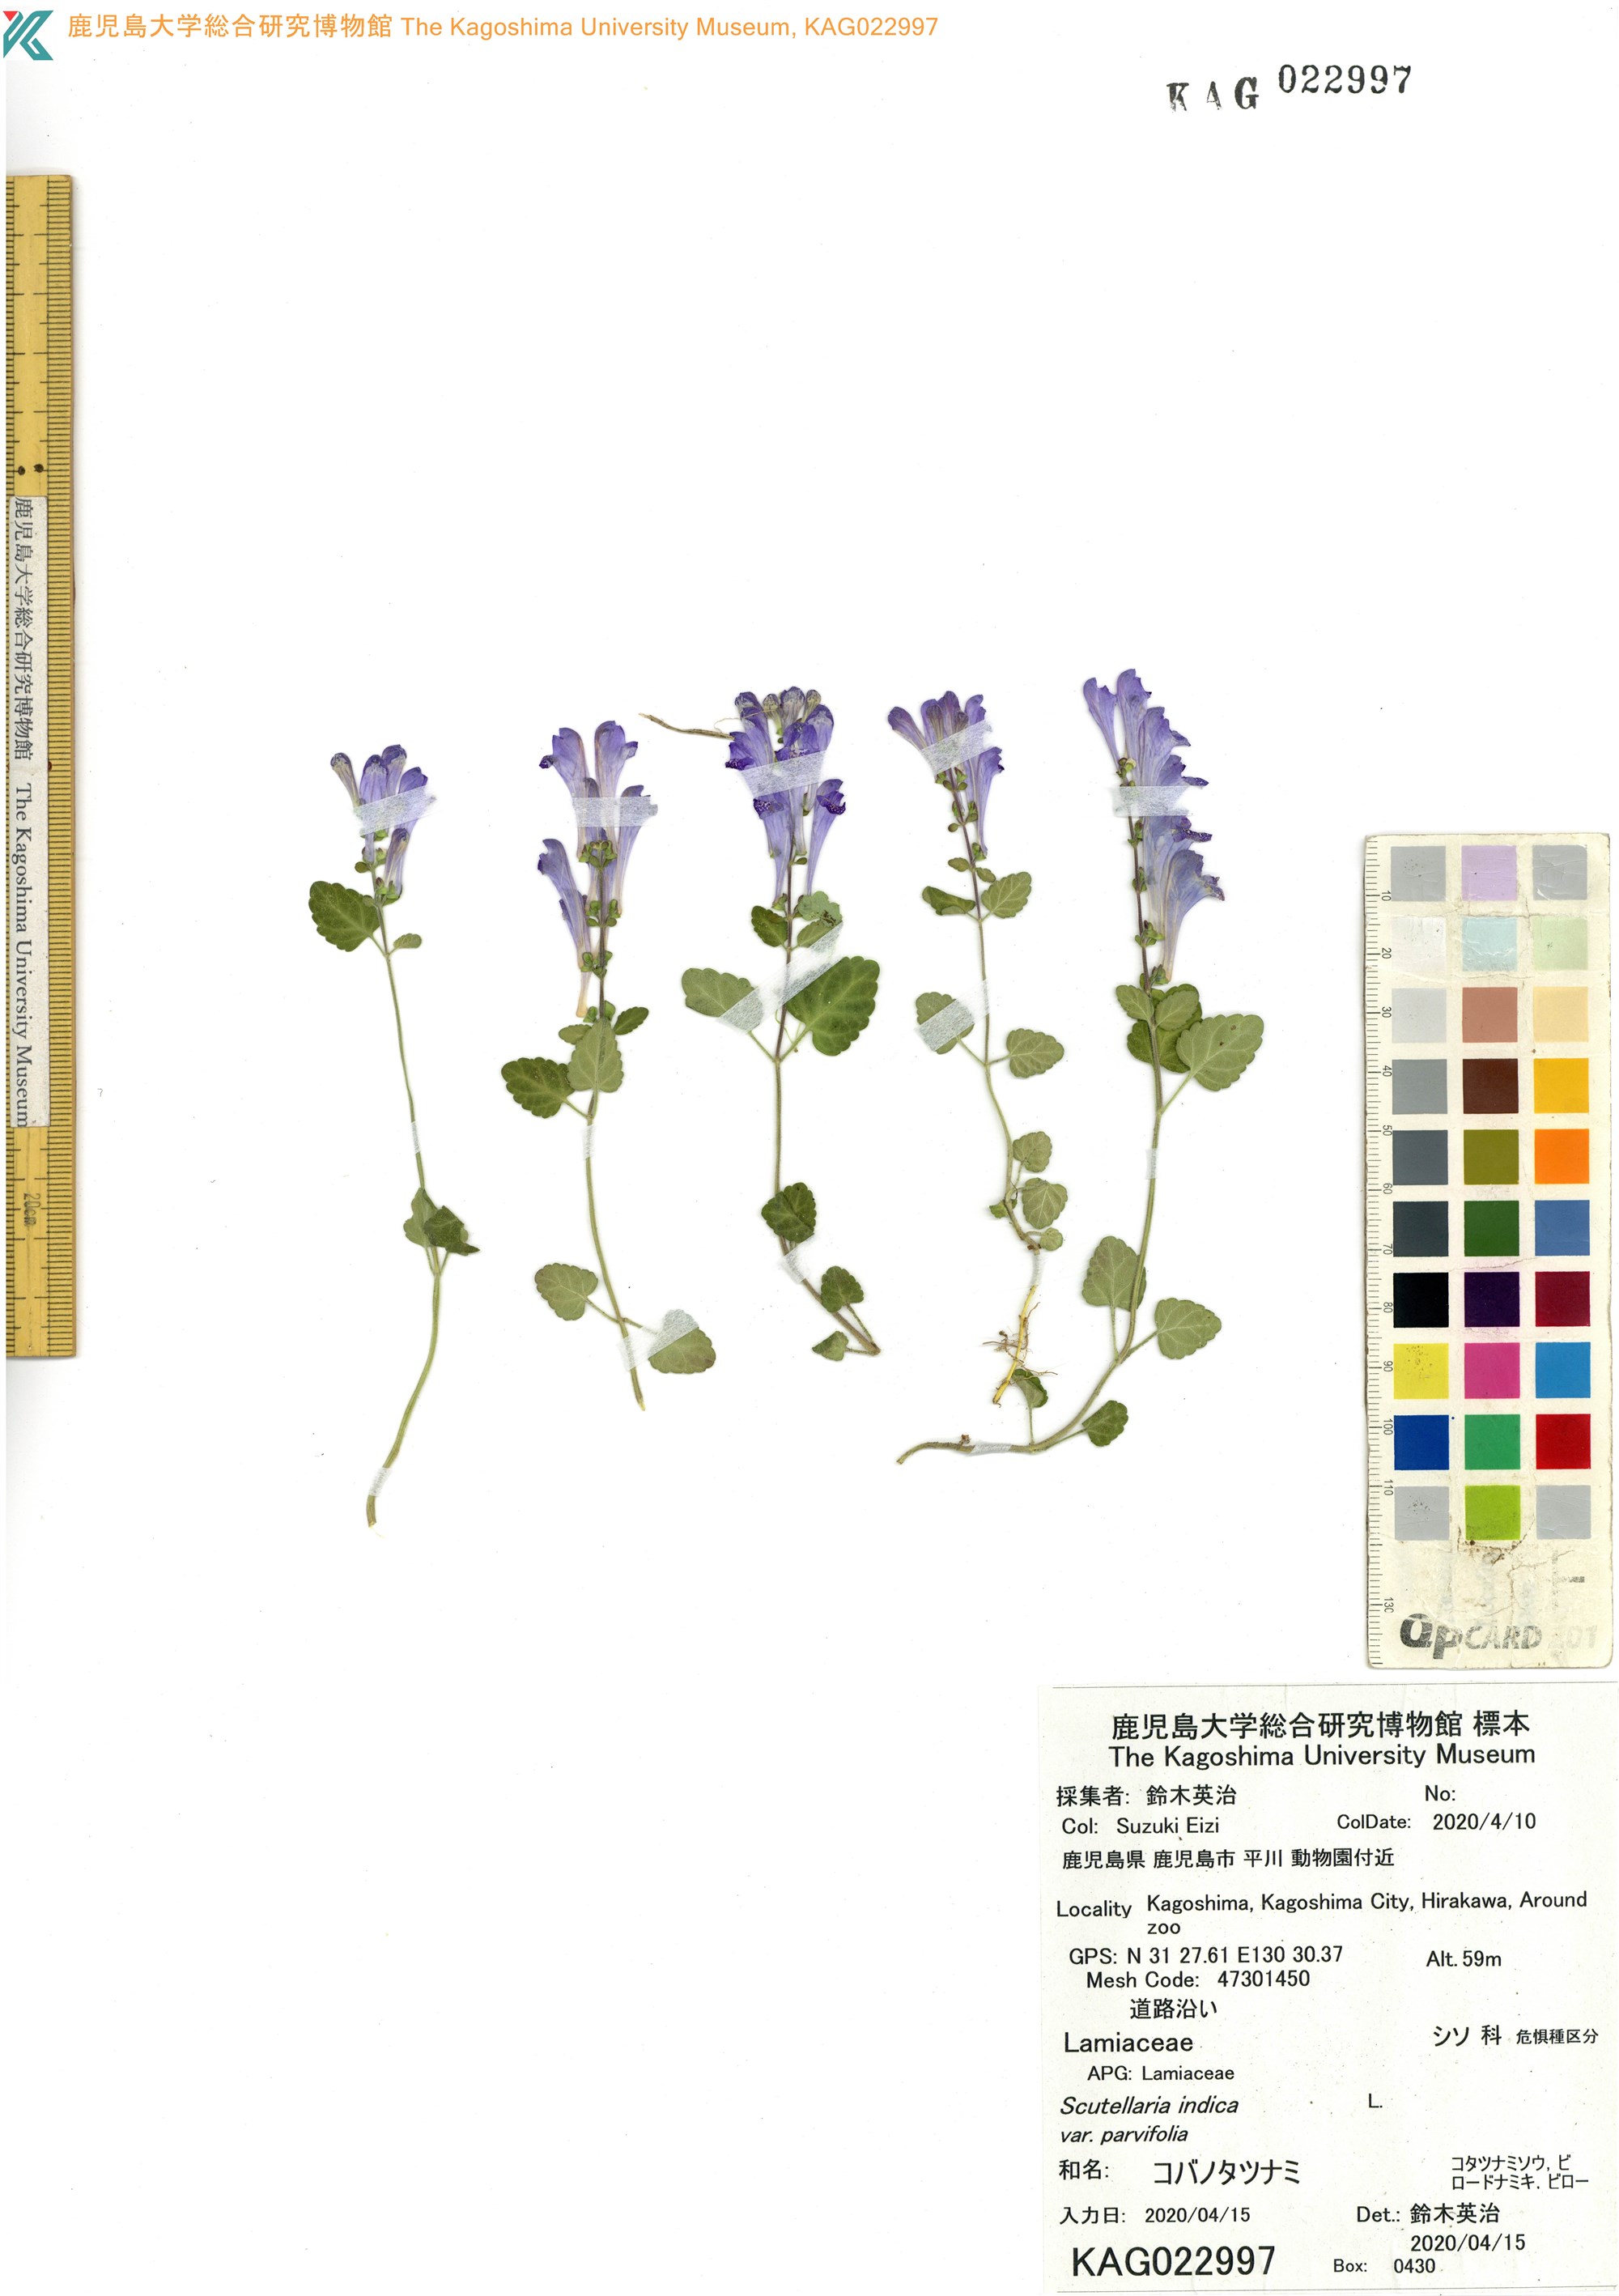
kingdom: Plantae
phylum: Tracheophyta
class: Magnoliopsida
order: Lamiales
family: Lamiaceae
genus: Scutellaria
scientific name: Scutellaria indica
